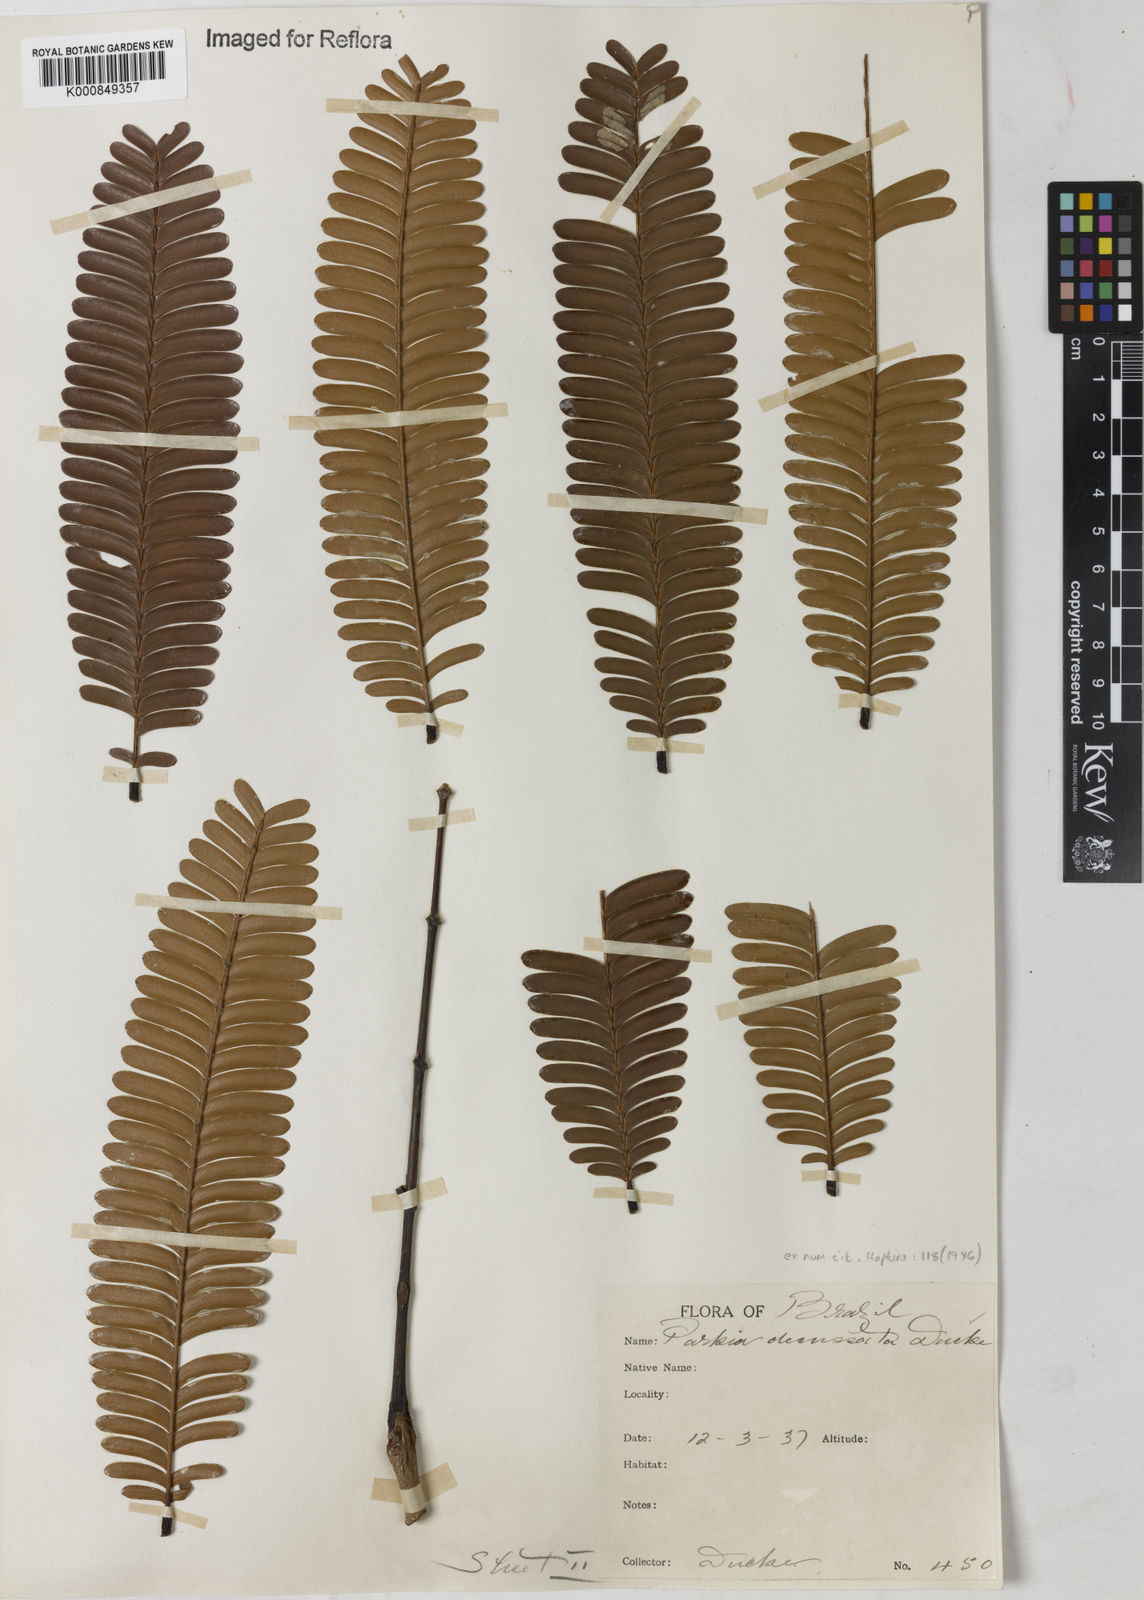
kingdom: Plantae
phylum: Tracheophyta
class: Magnoliopsida
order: Fabales
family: Fabaceae
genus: Parkia
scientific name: Parkia decussata
